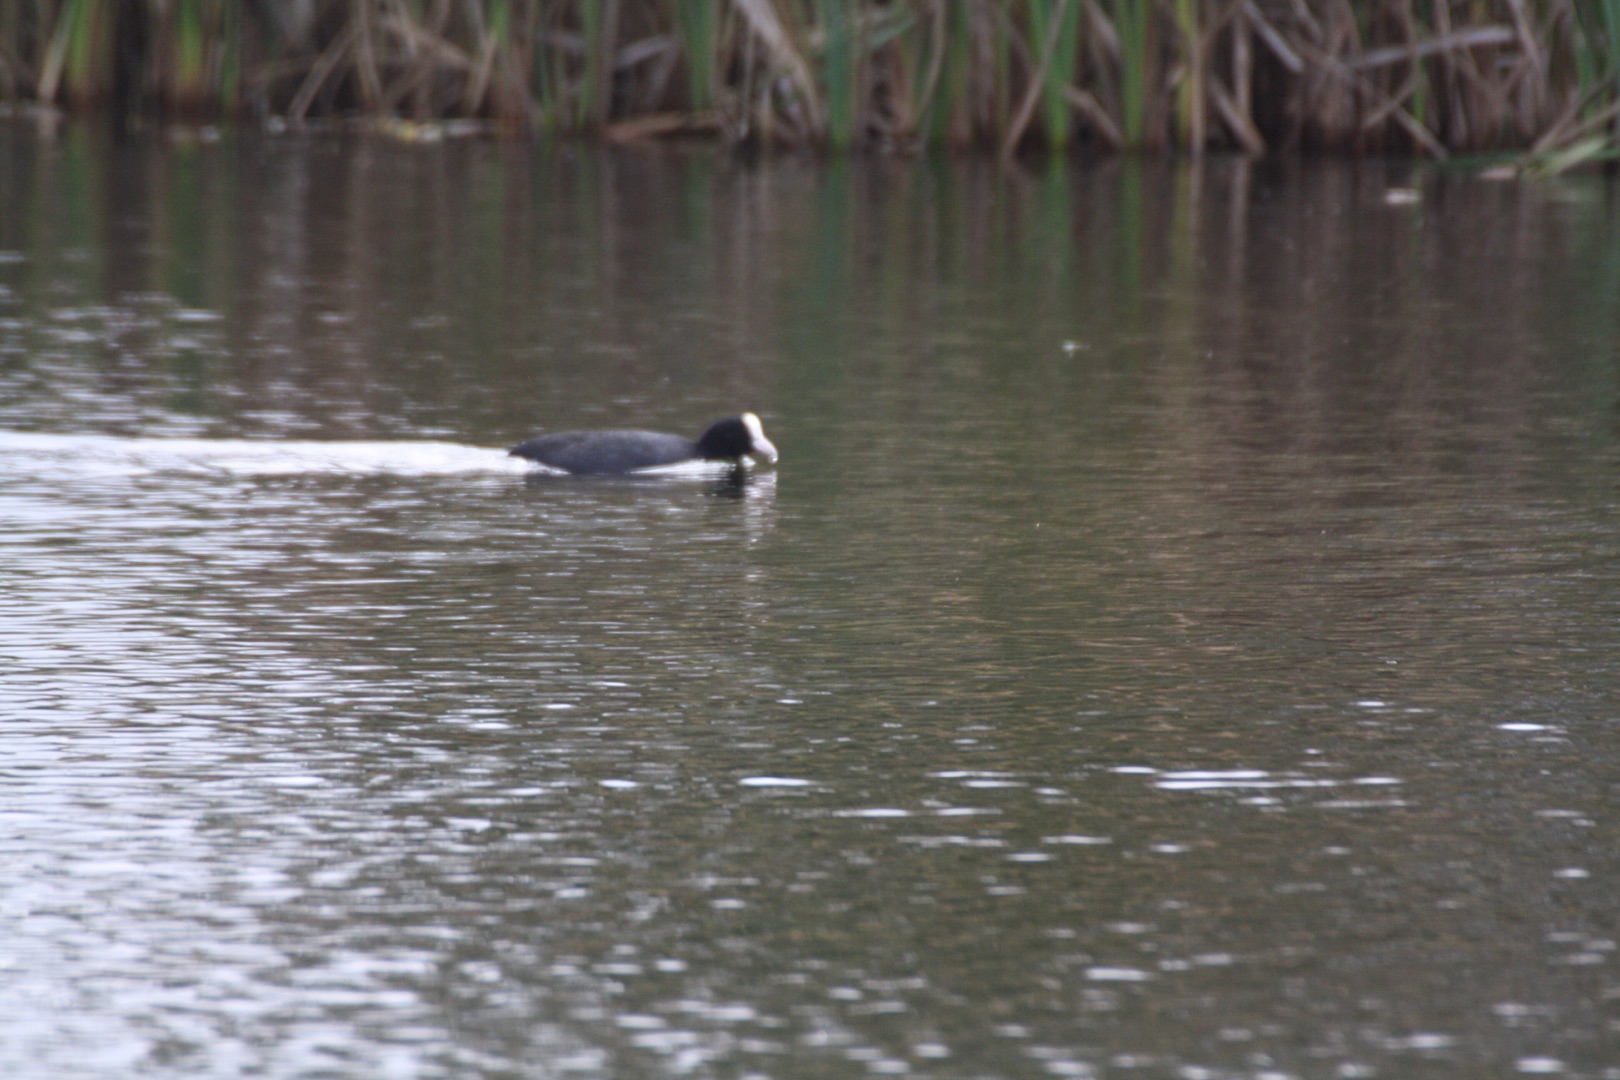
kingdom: Animalia
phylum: Chordata
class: Aves
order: Gruiformes
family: Rallidae
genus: Fulica
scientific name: Fulica atra
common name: Blishøne
